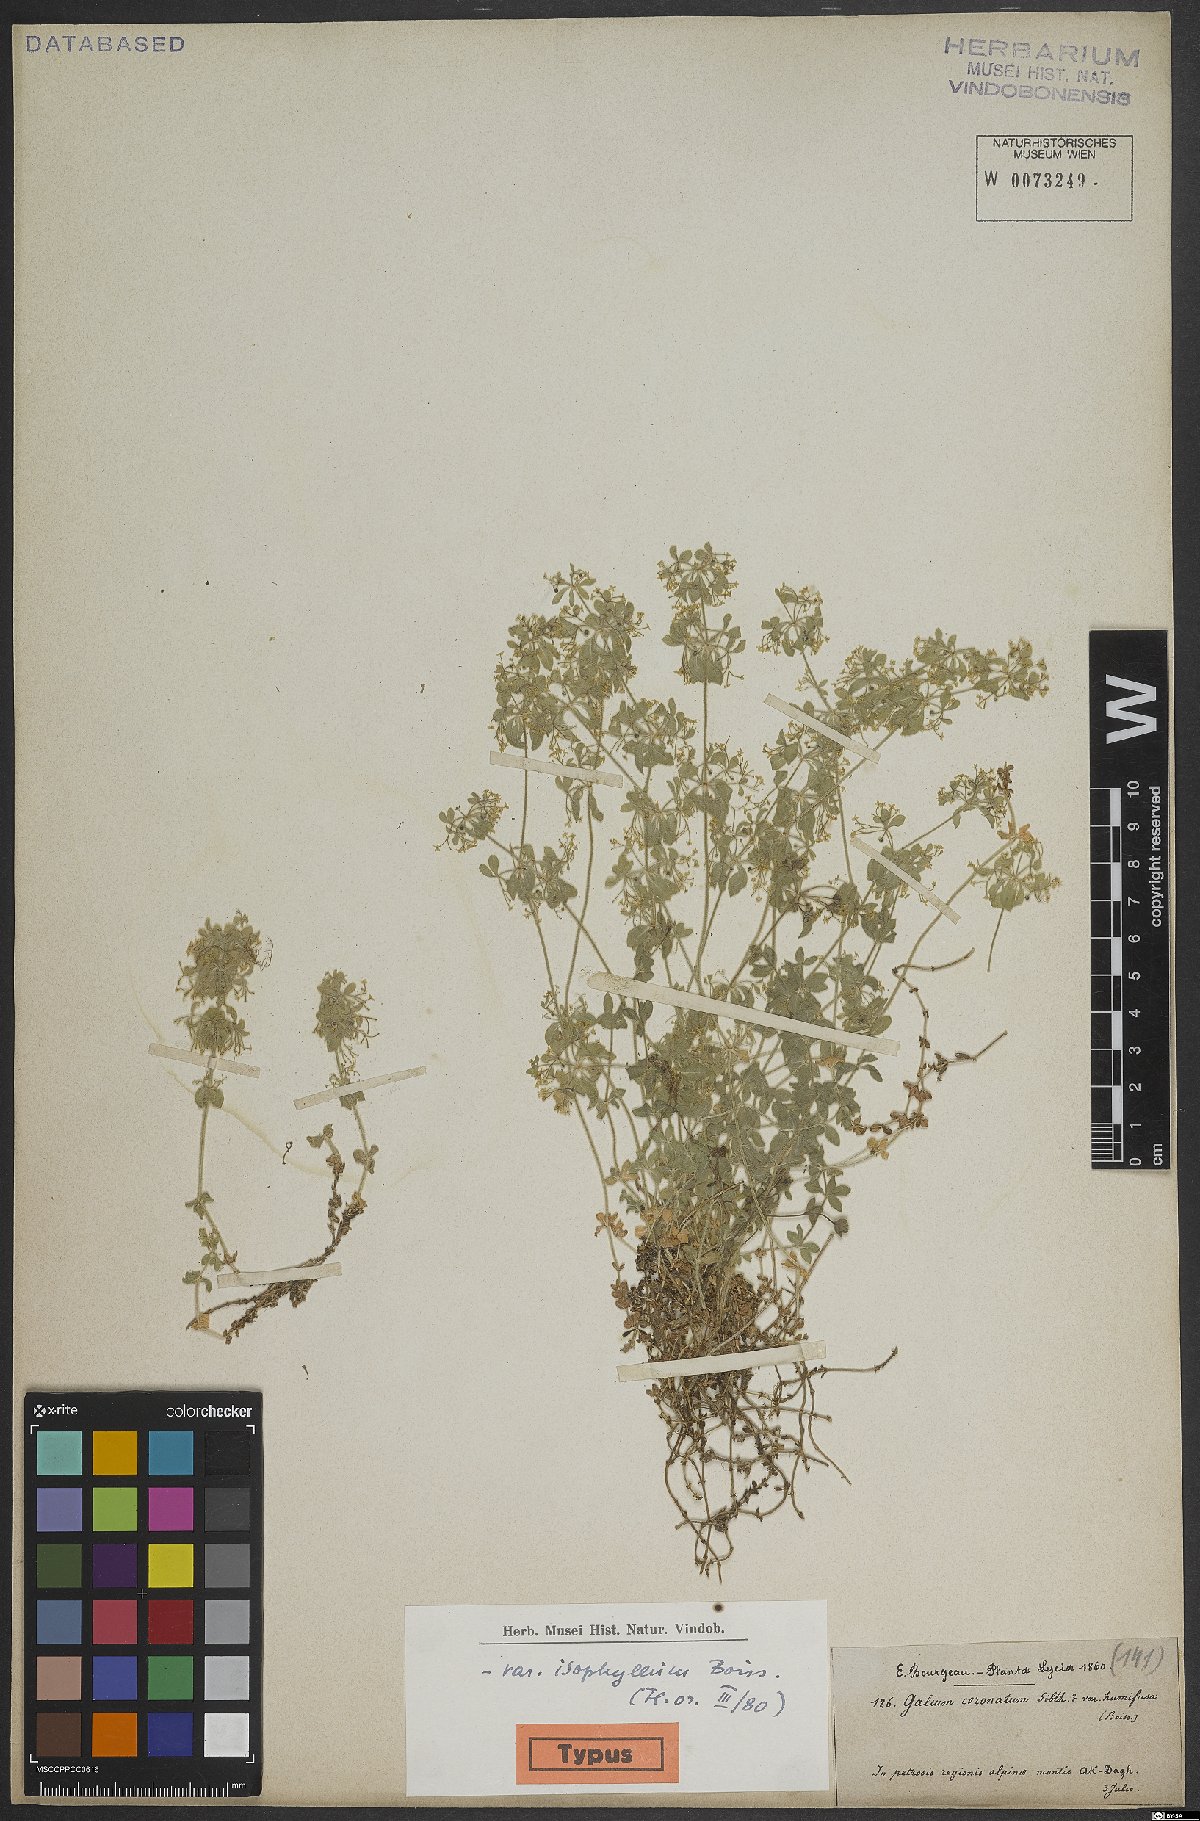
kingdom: Plantae
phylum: Tracheophyta
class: Magnoliopsida
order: Gentianales
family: Rubiaceae
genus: Cruciata
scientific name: Cruciata taurica
